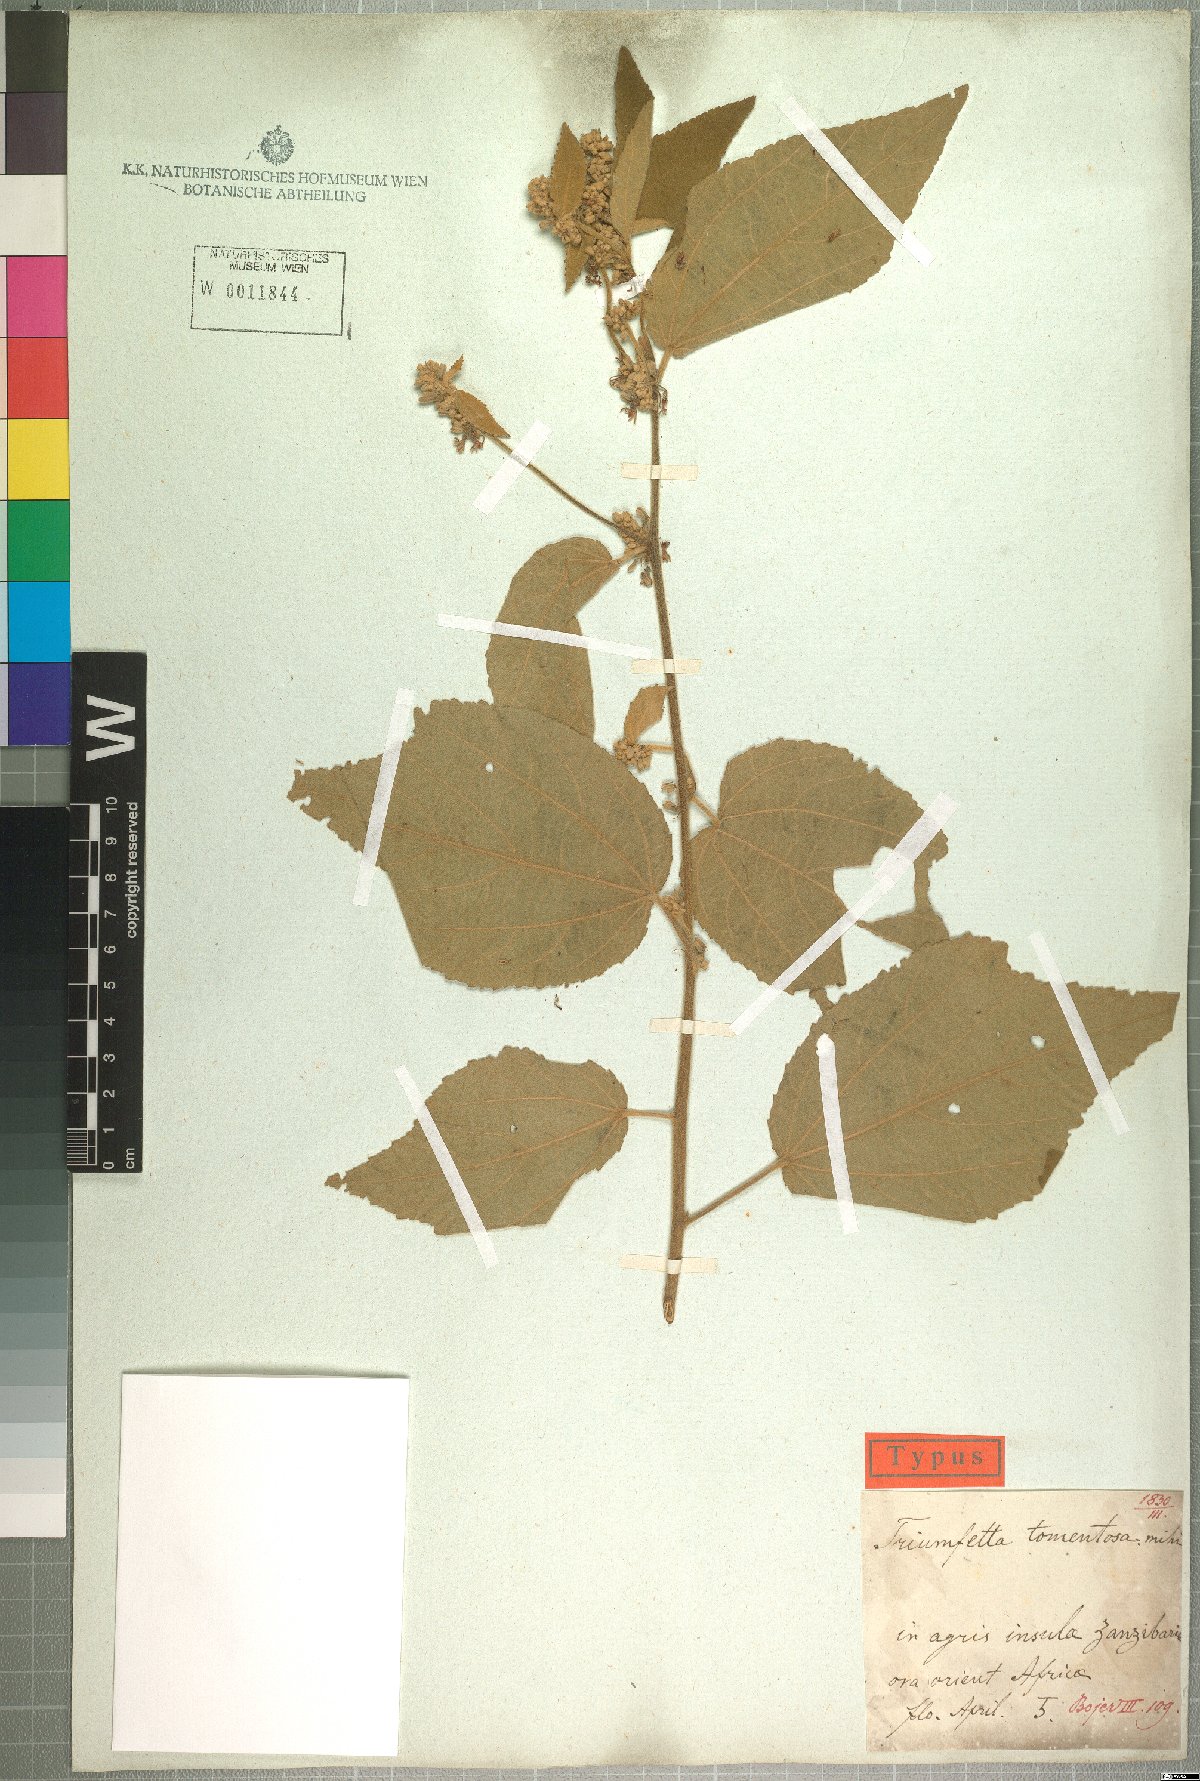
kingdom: Plantae
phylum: Tracheophyta
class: Magnoliopsida
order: Malvales
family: Malvaceae
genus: Triumfetta
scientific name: Triumfetta tomentosa
